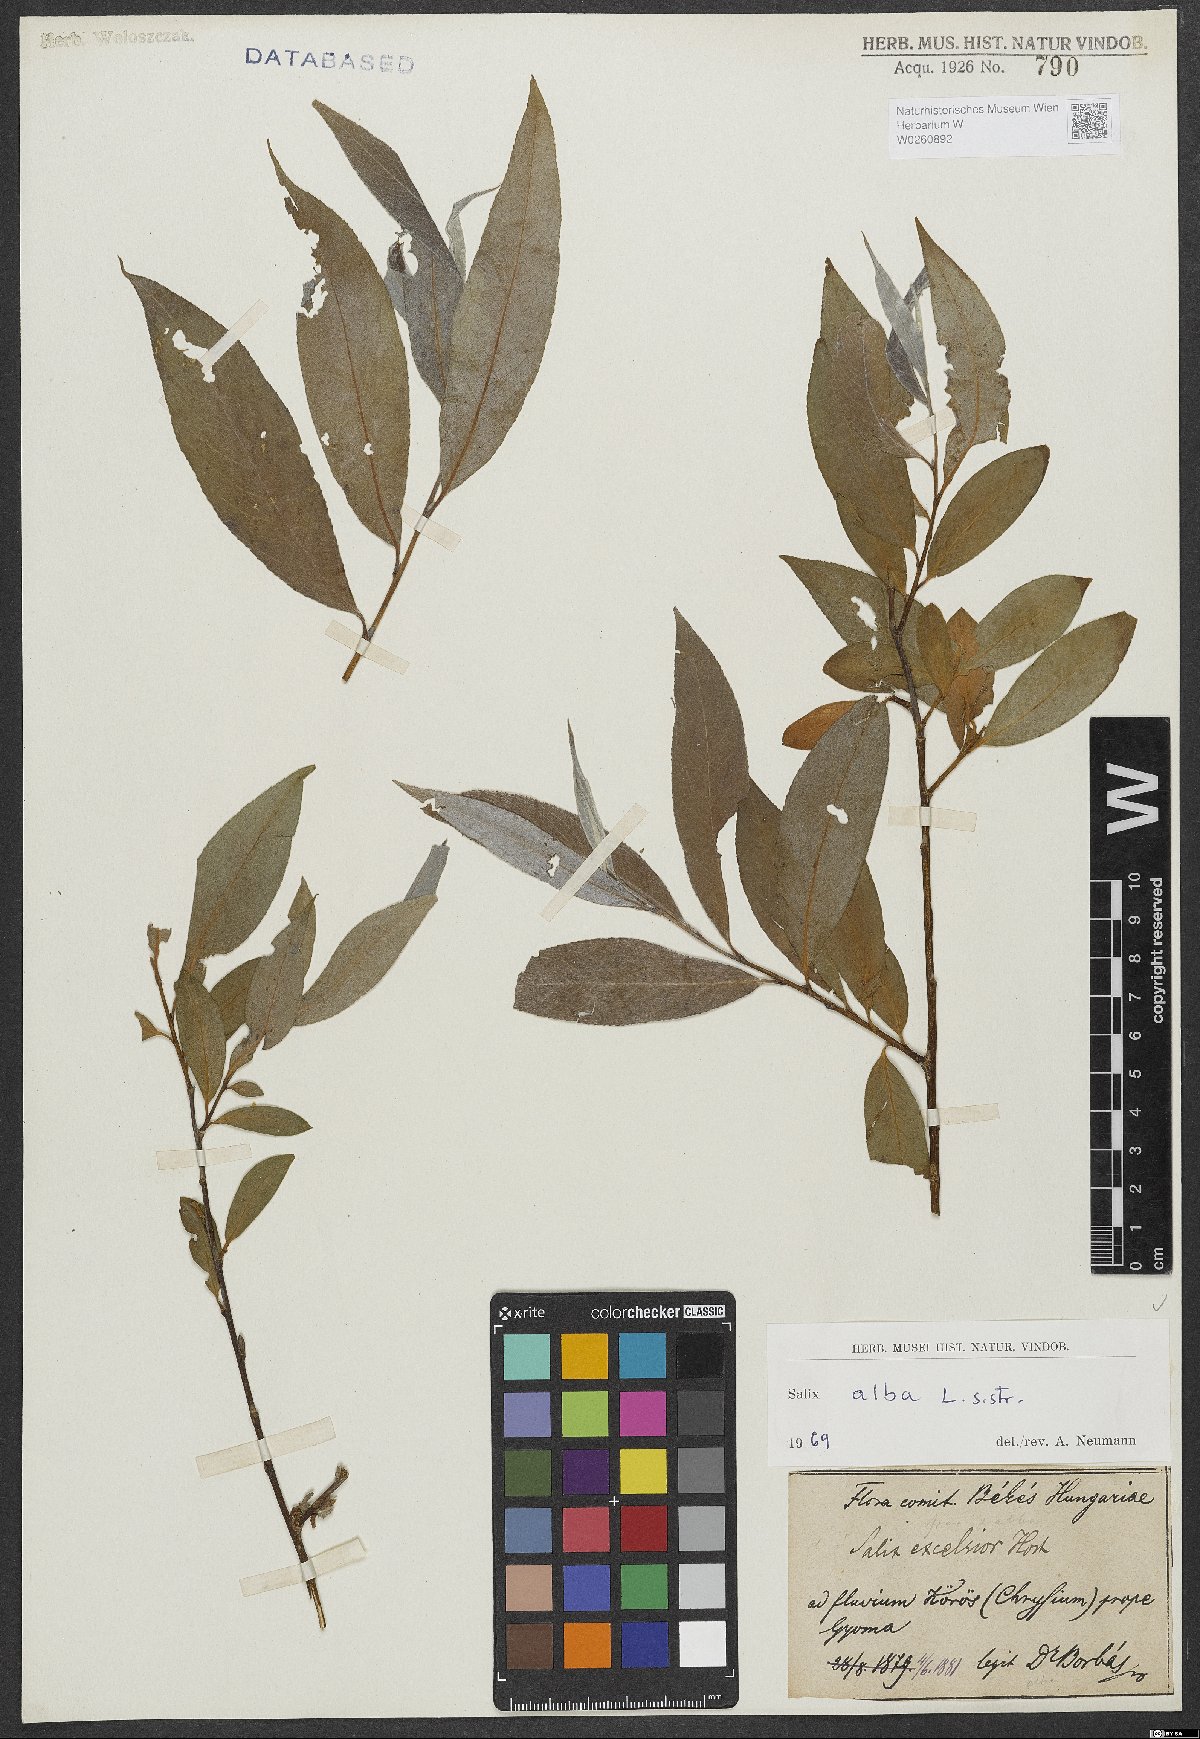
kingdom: Plantae
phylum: Tracheophyta
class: Magnoliopsida
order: Malpighiales
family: Salicaceae
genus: Salix
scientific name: Salix alba
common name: White willow
